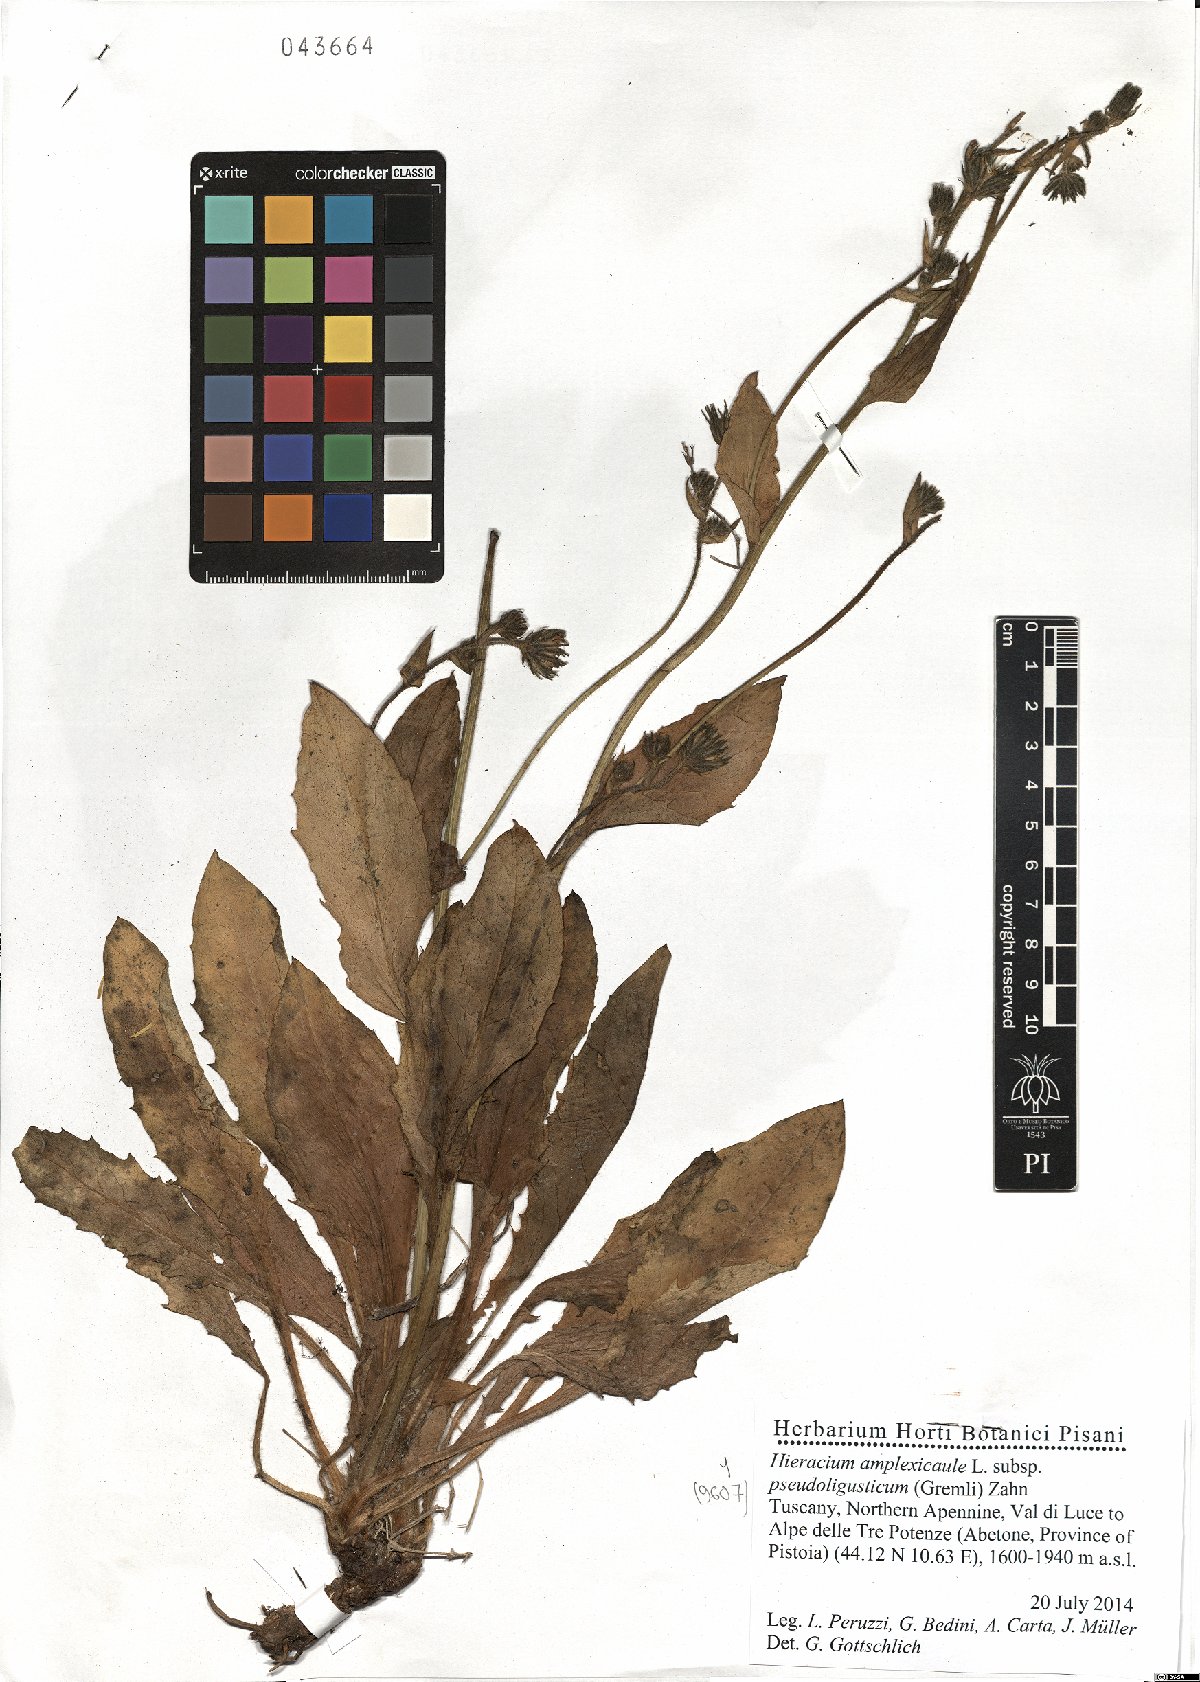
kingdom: Plantae
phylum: Tracheophyta
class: Magnoliopsida
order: Asterales
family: Asteraceae
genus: Hieracium
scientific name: Hieracium amplexicaule
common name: Sticky hawkweed
